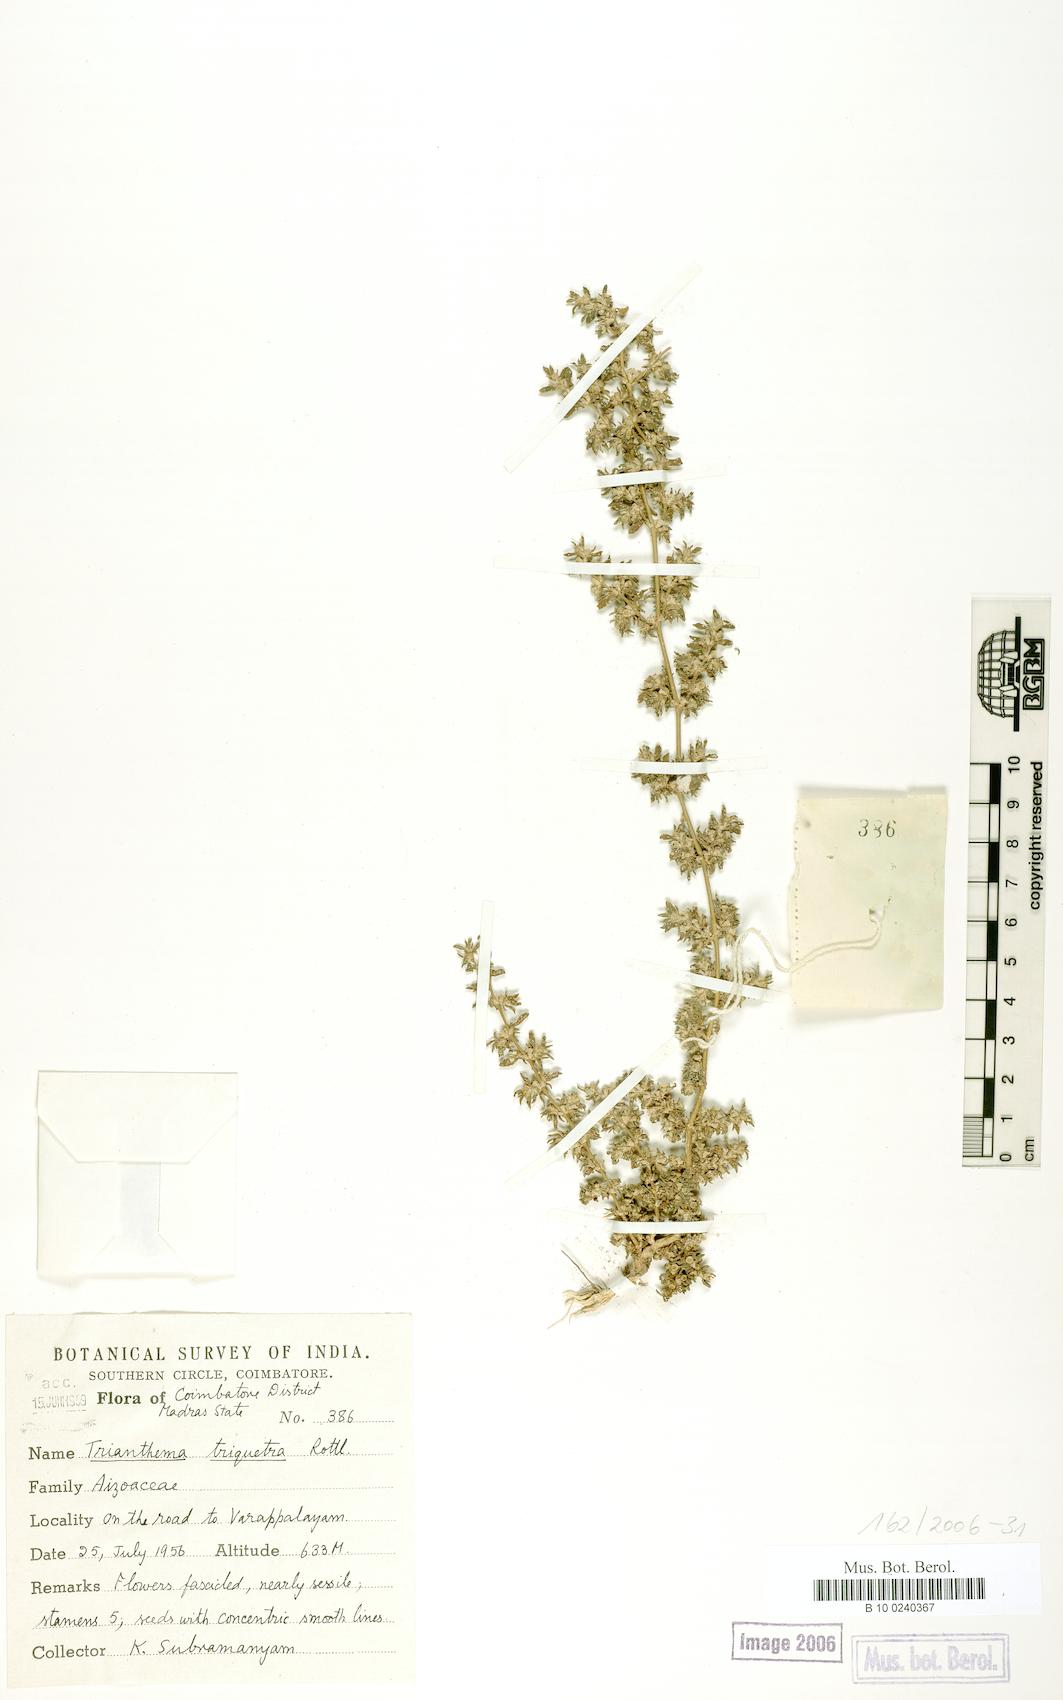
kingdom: Plantae
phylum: Tracheophyta
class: Magnoliopsida
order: Caryophyllales
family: Aizoaceae
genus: Trianthema
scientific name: Trianthema triquetrum
